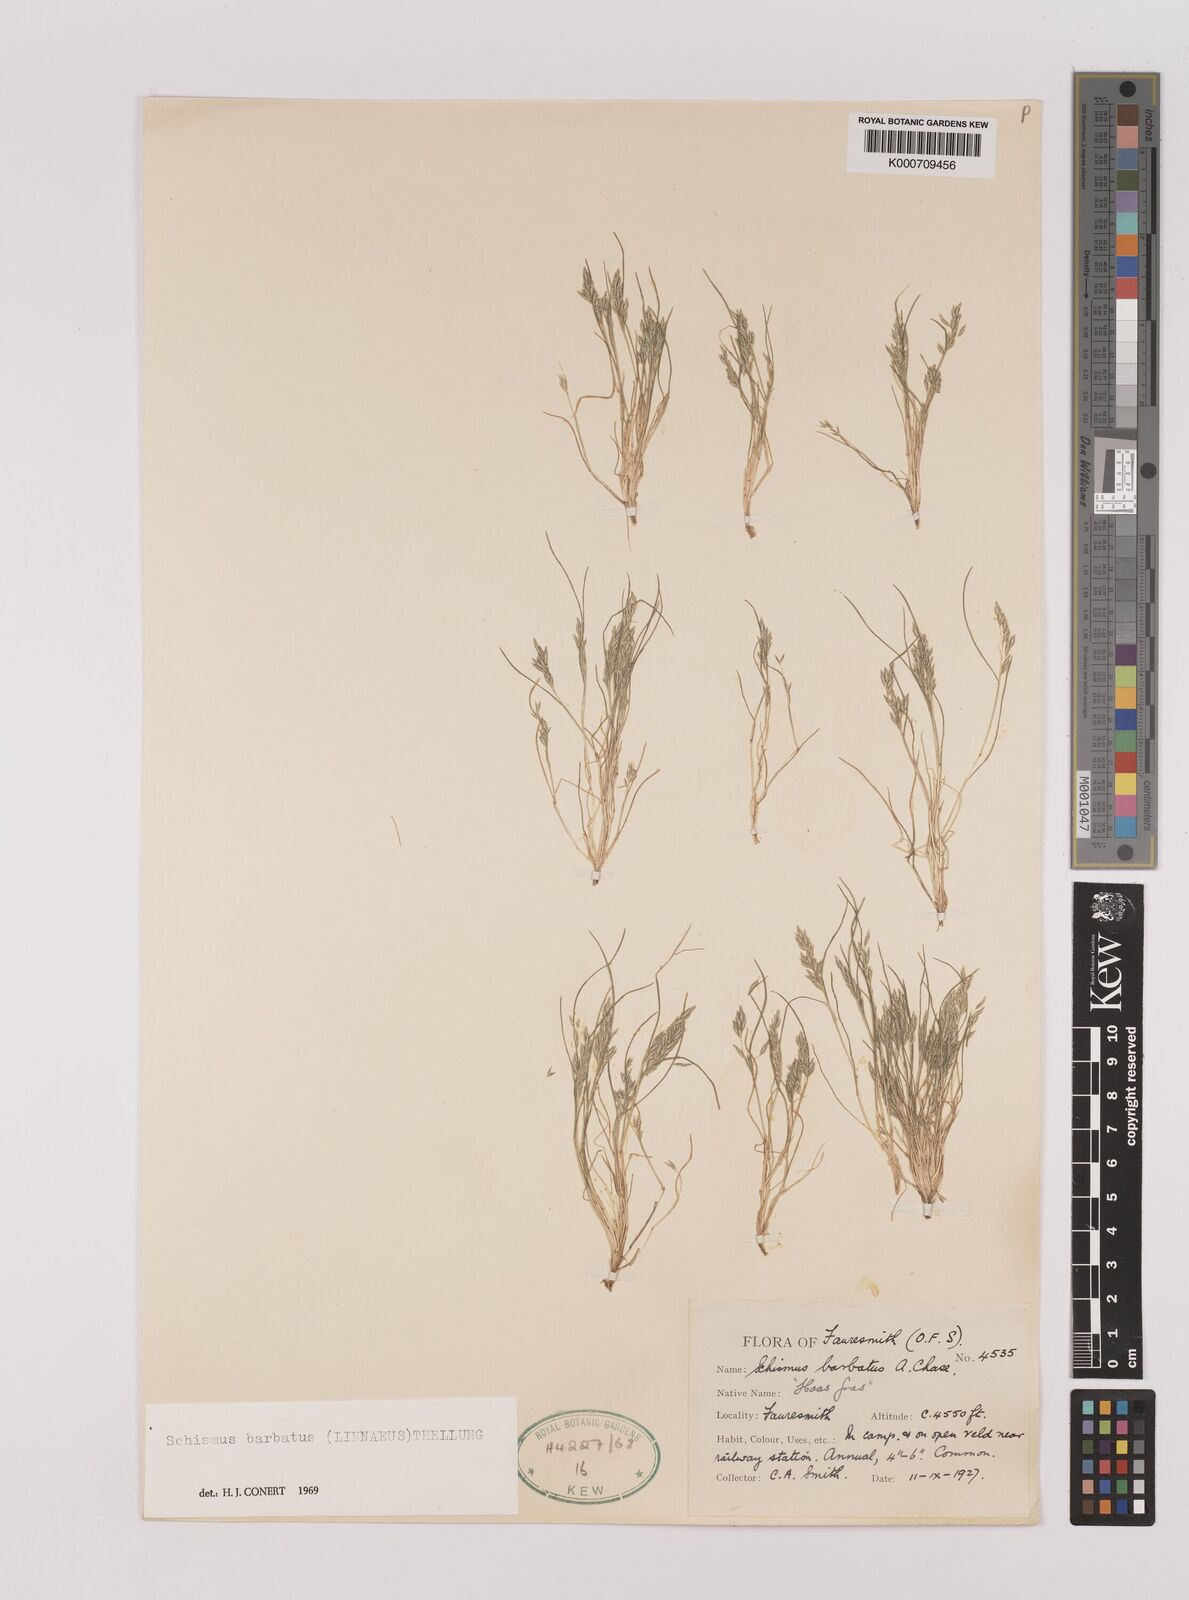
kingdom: Plantae
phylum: Tracheophyta
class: Liliopsida
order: Poales
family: Poaceae
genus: Schismus
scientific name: Schismus barbatus
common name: Kelch-grass
